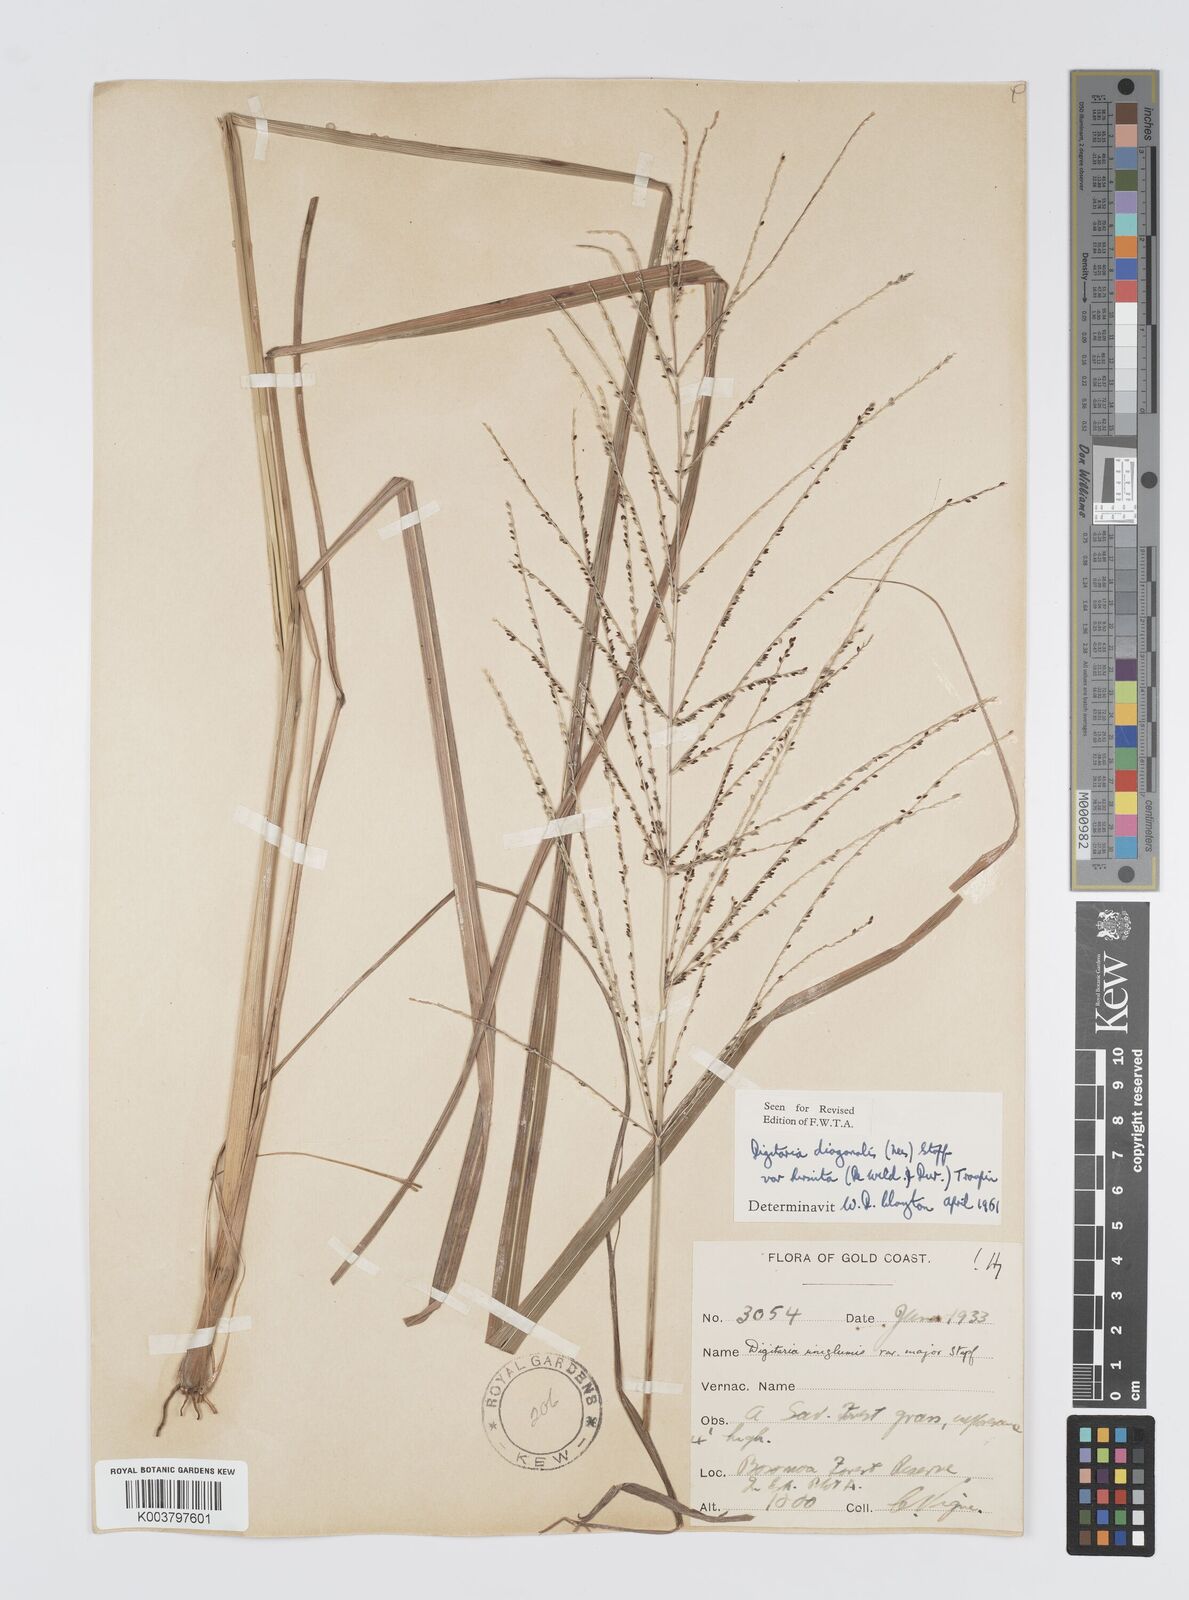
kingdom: Plantae
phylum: Tracheophyta
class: Liliopsida
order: Poales
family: Poaceae
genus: Digitaria
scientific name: Digitaria diagonalis
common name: Brown-seed finger grass
